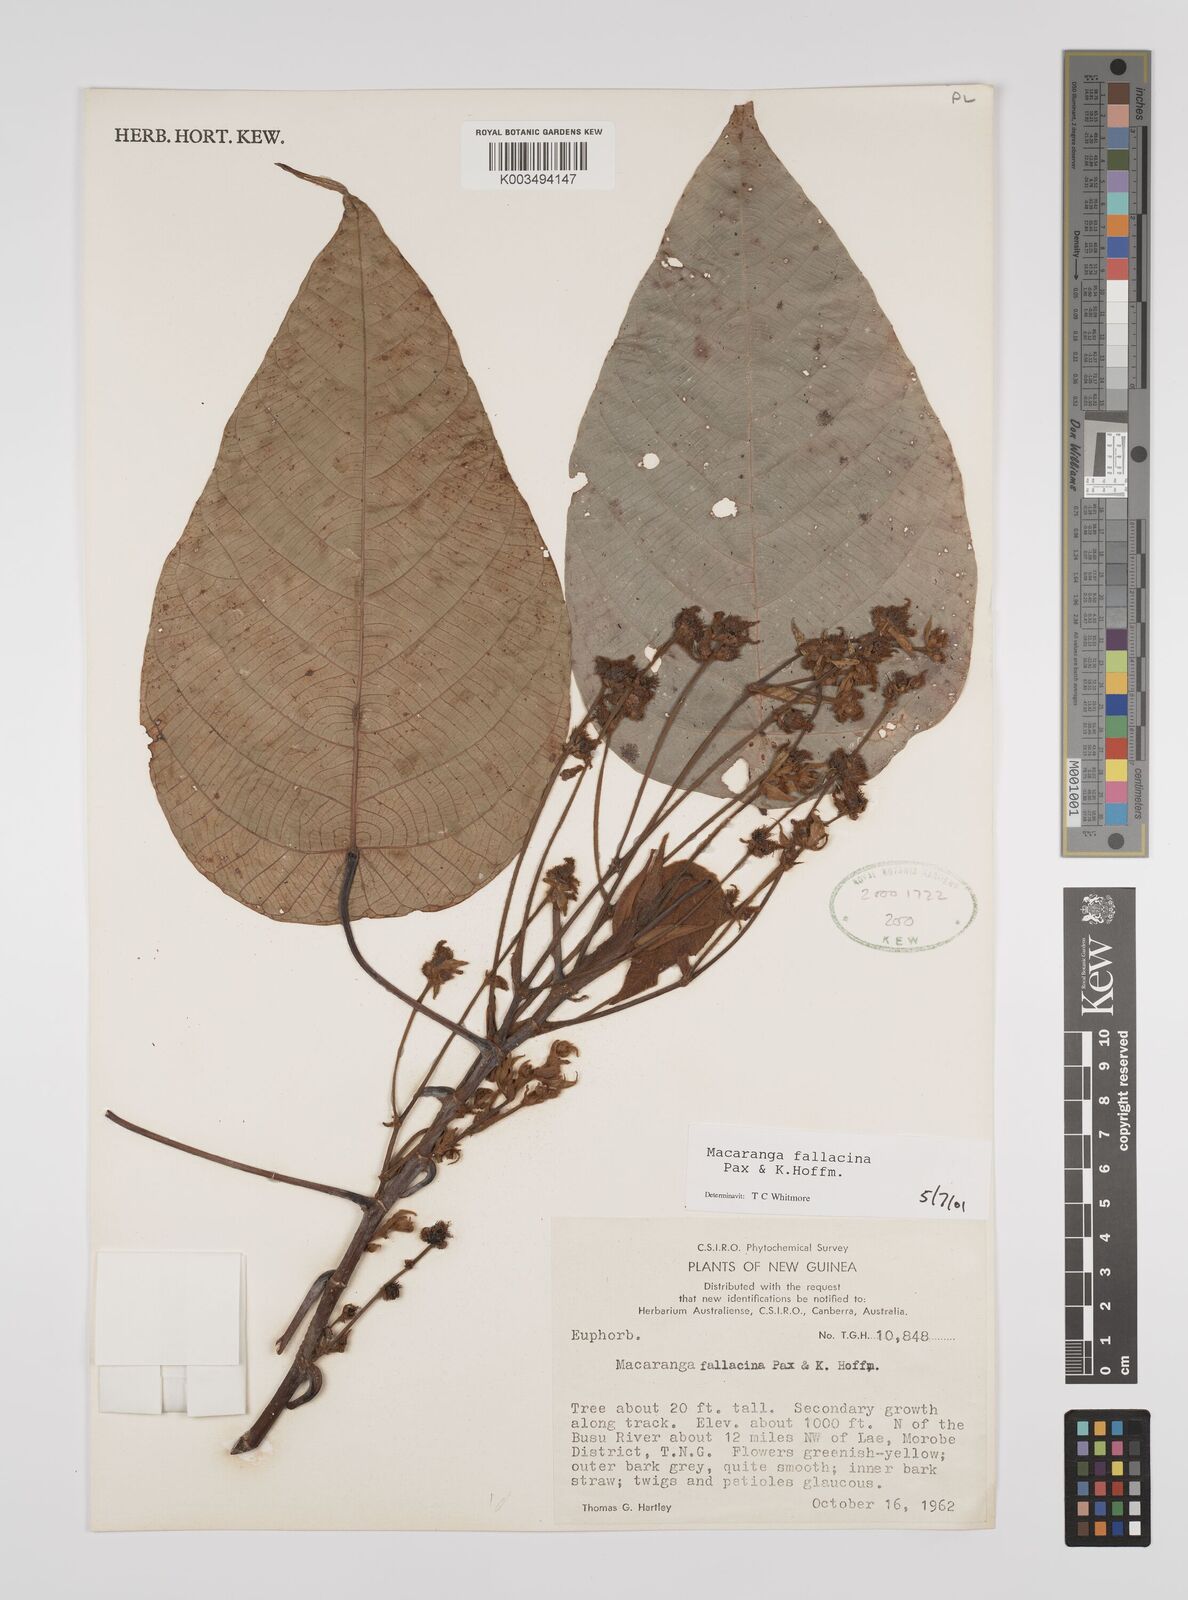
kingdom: Plantae
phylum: Tracheophyta
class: Magnoliopsida
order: Malpighiales
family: Euphorbiaceae
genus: Macaranga
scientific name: Macaranga fallacina
